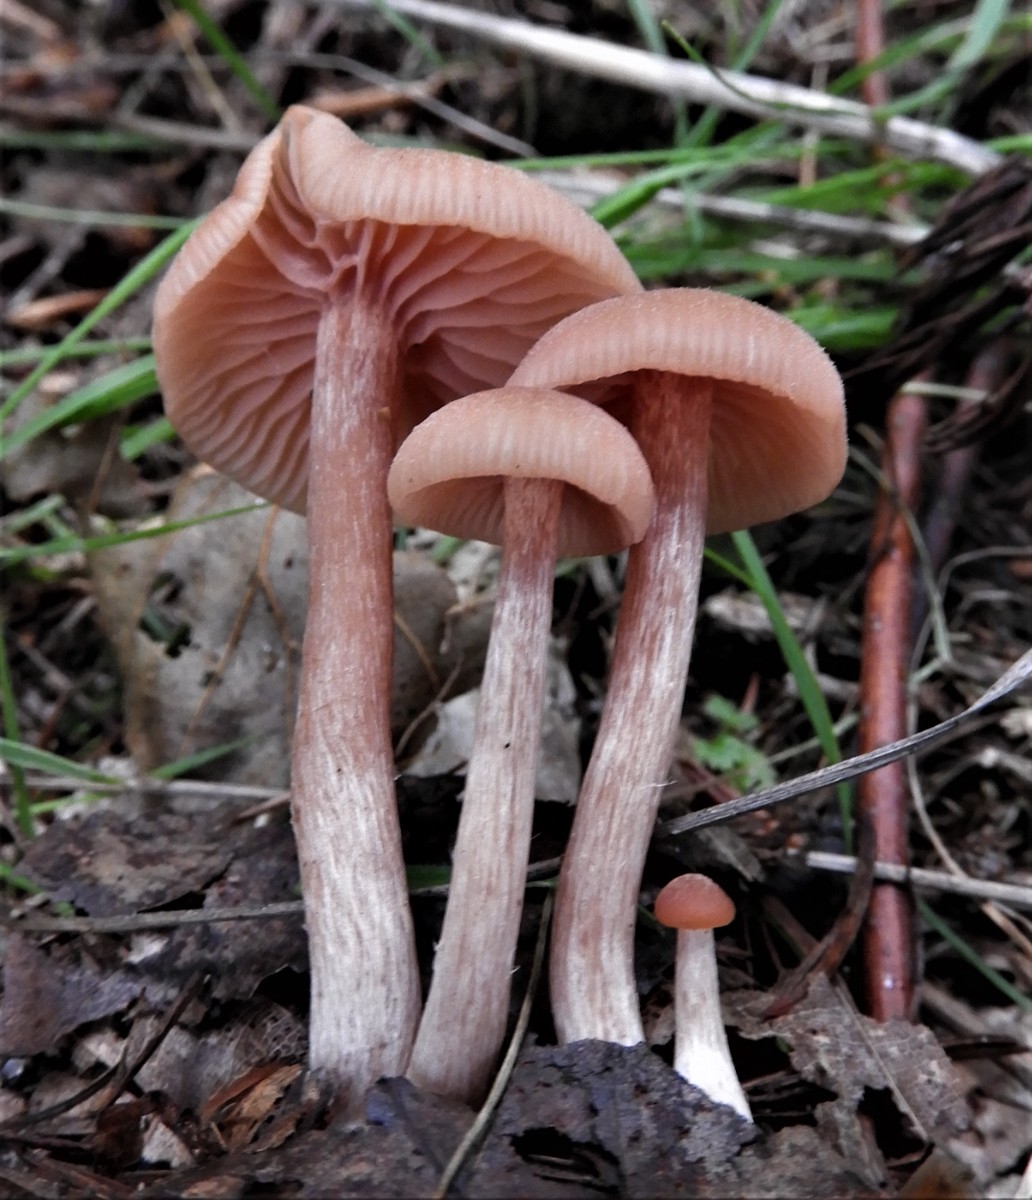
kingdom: Fungi
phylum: Basidiomycota
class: Agaricomycetes
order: Agaricales
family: Hydnangiaceae
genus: Laccaria
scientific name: Laccaria laccata
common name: rød ametysthat
